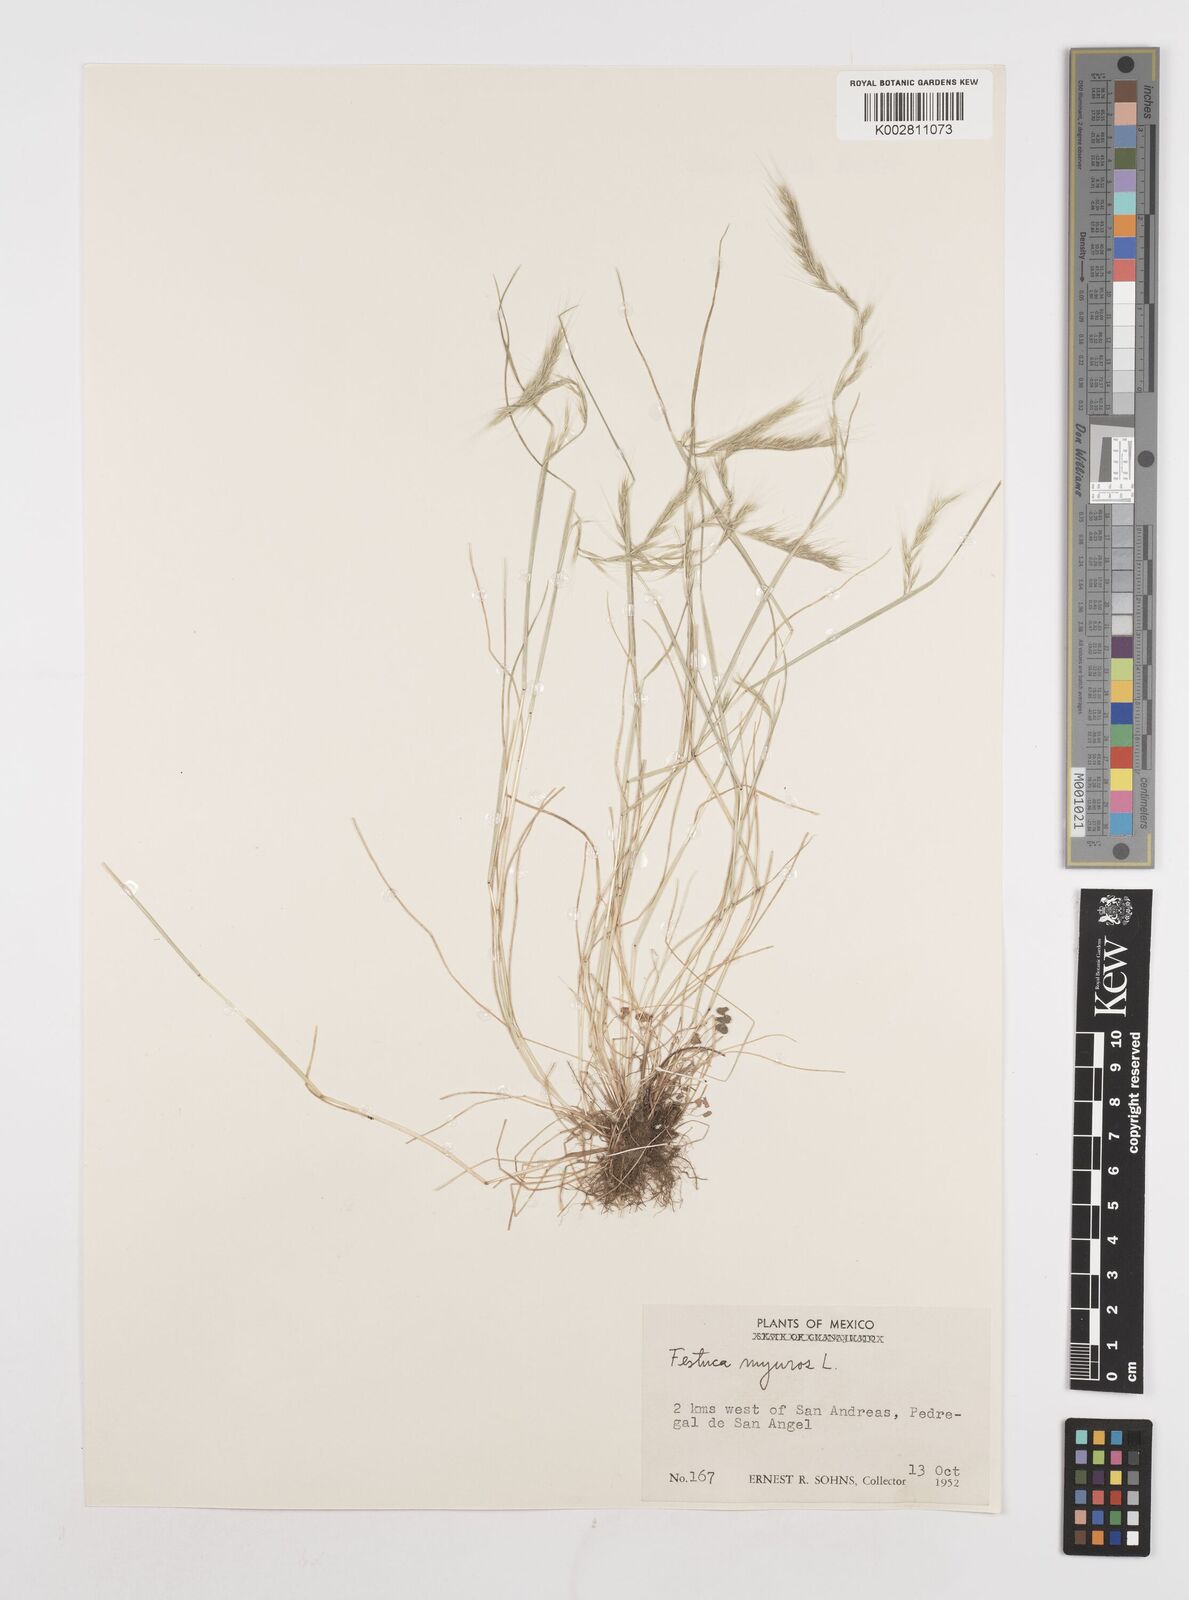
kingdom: Plantae
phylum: Tracheophyta
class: Liliopsida
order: Poales
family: Poaceae
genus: Festuca
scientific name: Festuca myuros
